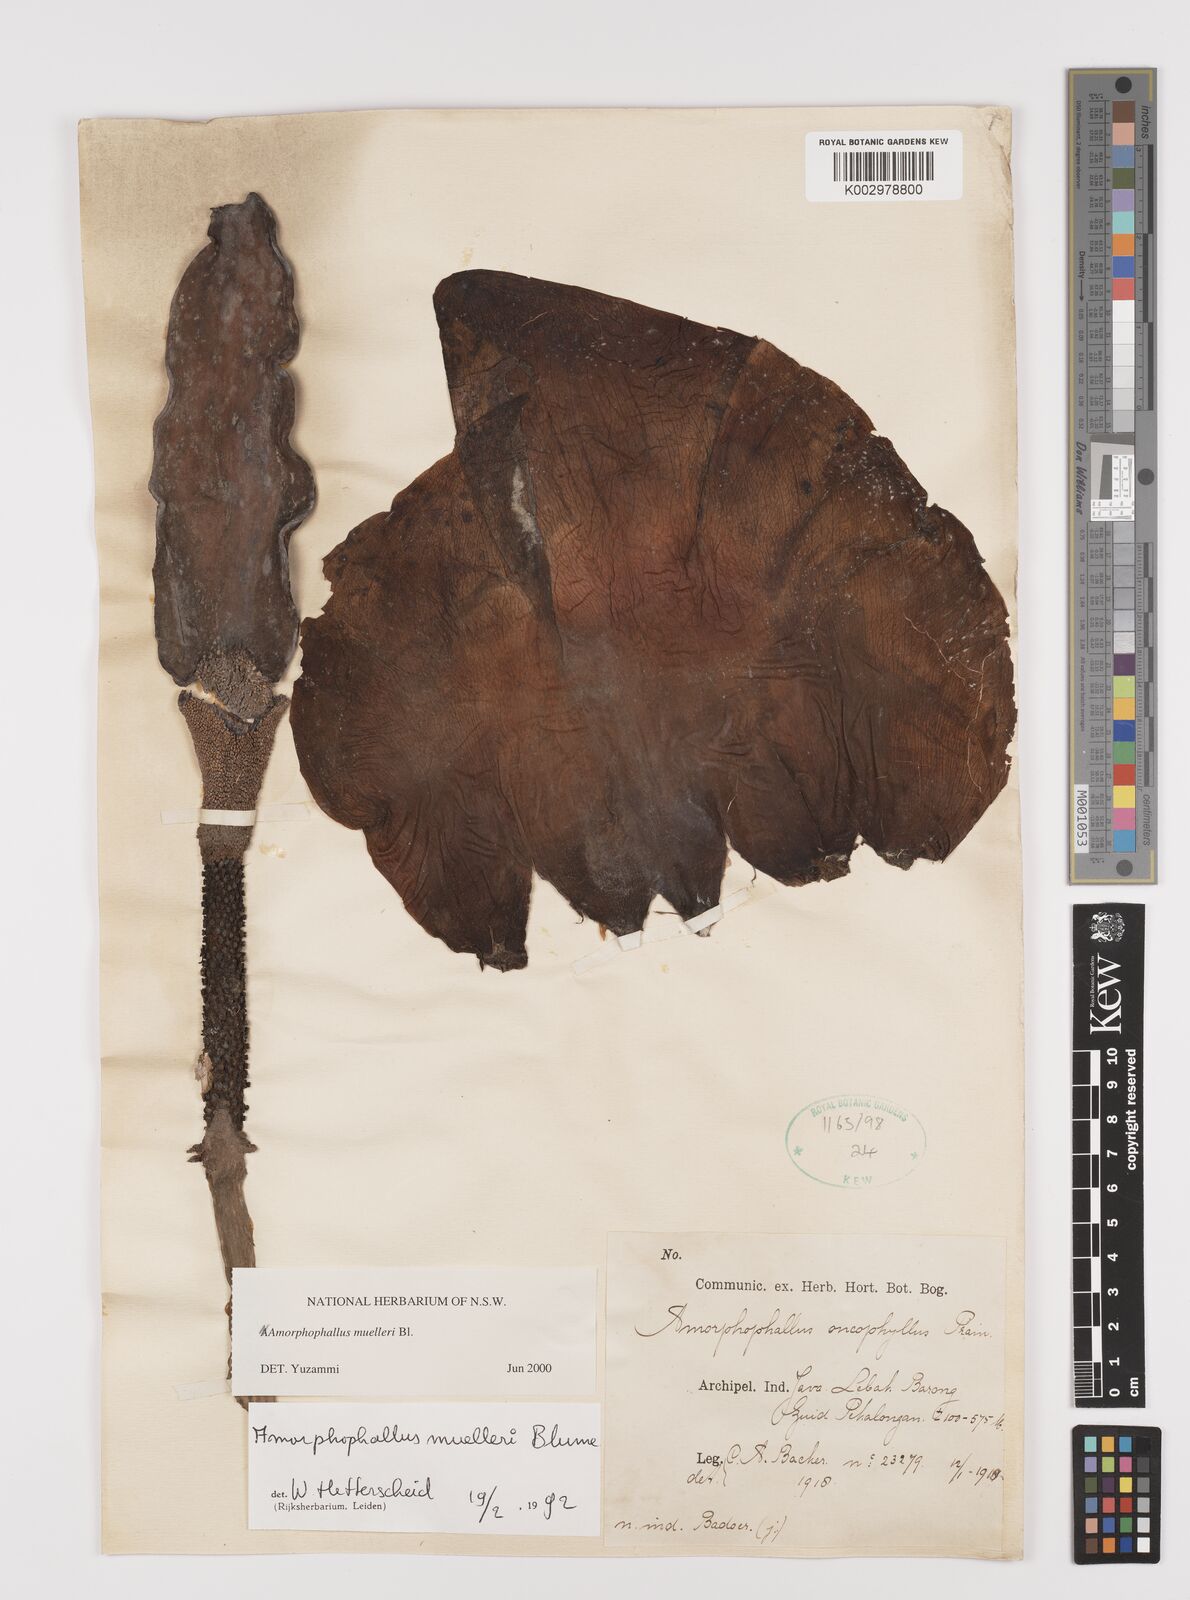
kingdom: Plantae
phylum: Tracheophyta
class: Liliopsida
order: Alismatales
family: Araceae
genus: Amorphophallus
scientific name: Amorphophallus muelleri
